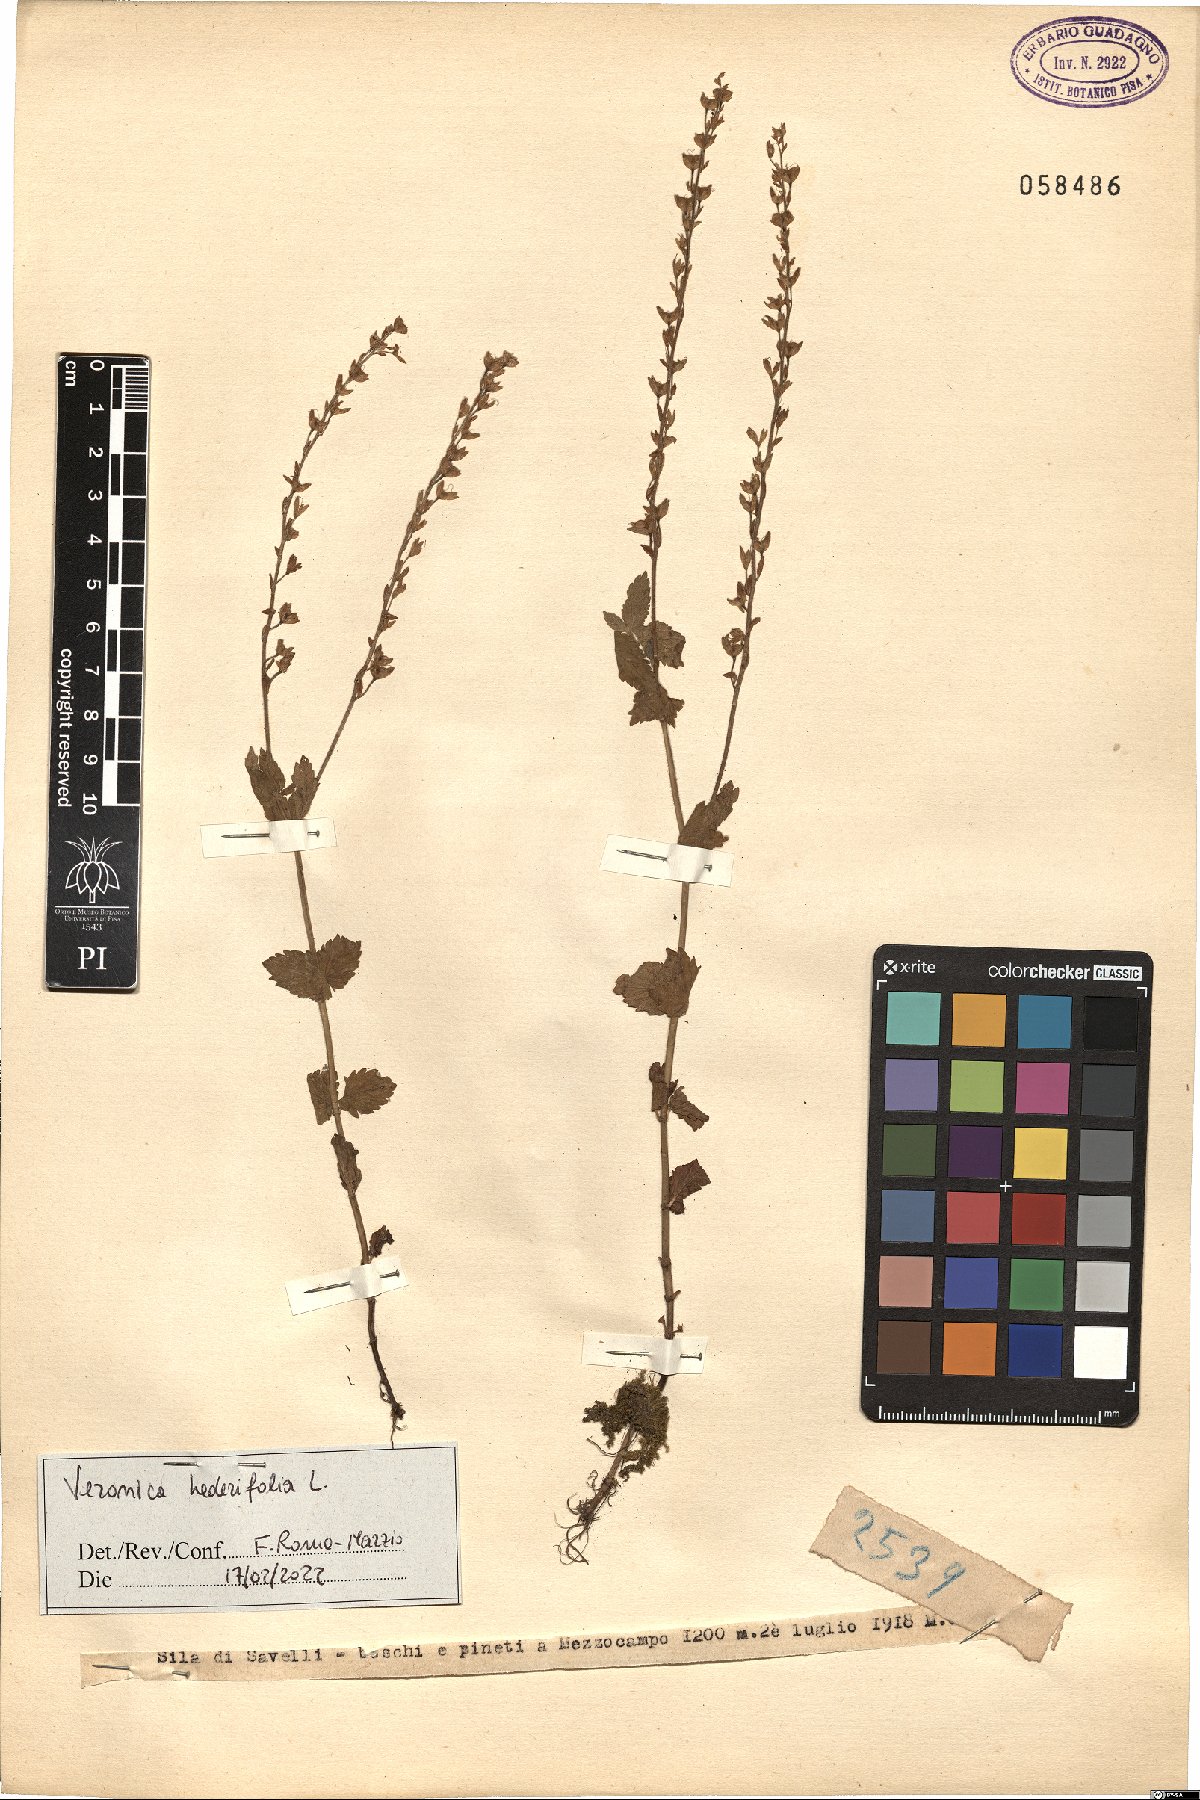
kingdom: Plantae
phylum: Tracheophyta
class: Magnoliopsida
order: Lamiales
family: Plantaginaceae
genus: Veronica
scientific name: Veronica hederifolia
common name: Ivy-leaved speedwell
